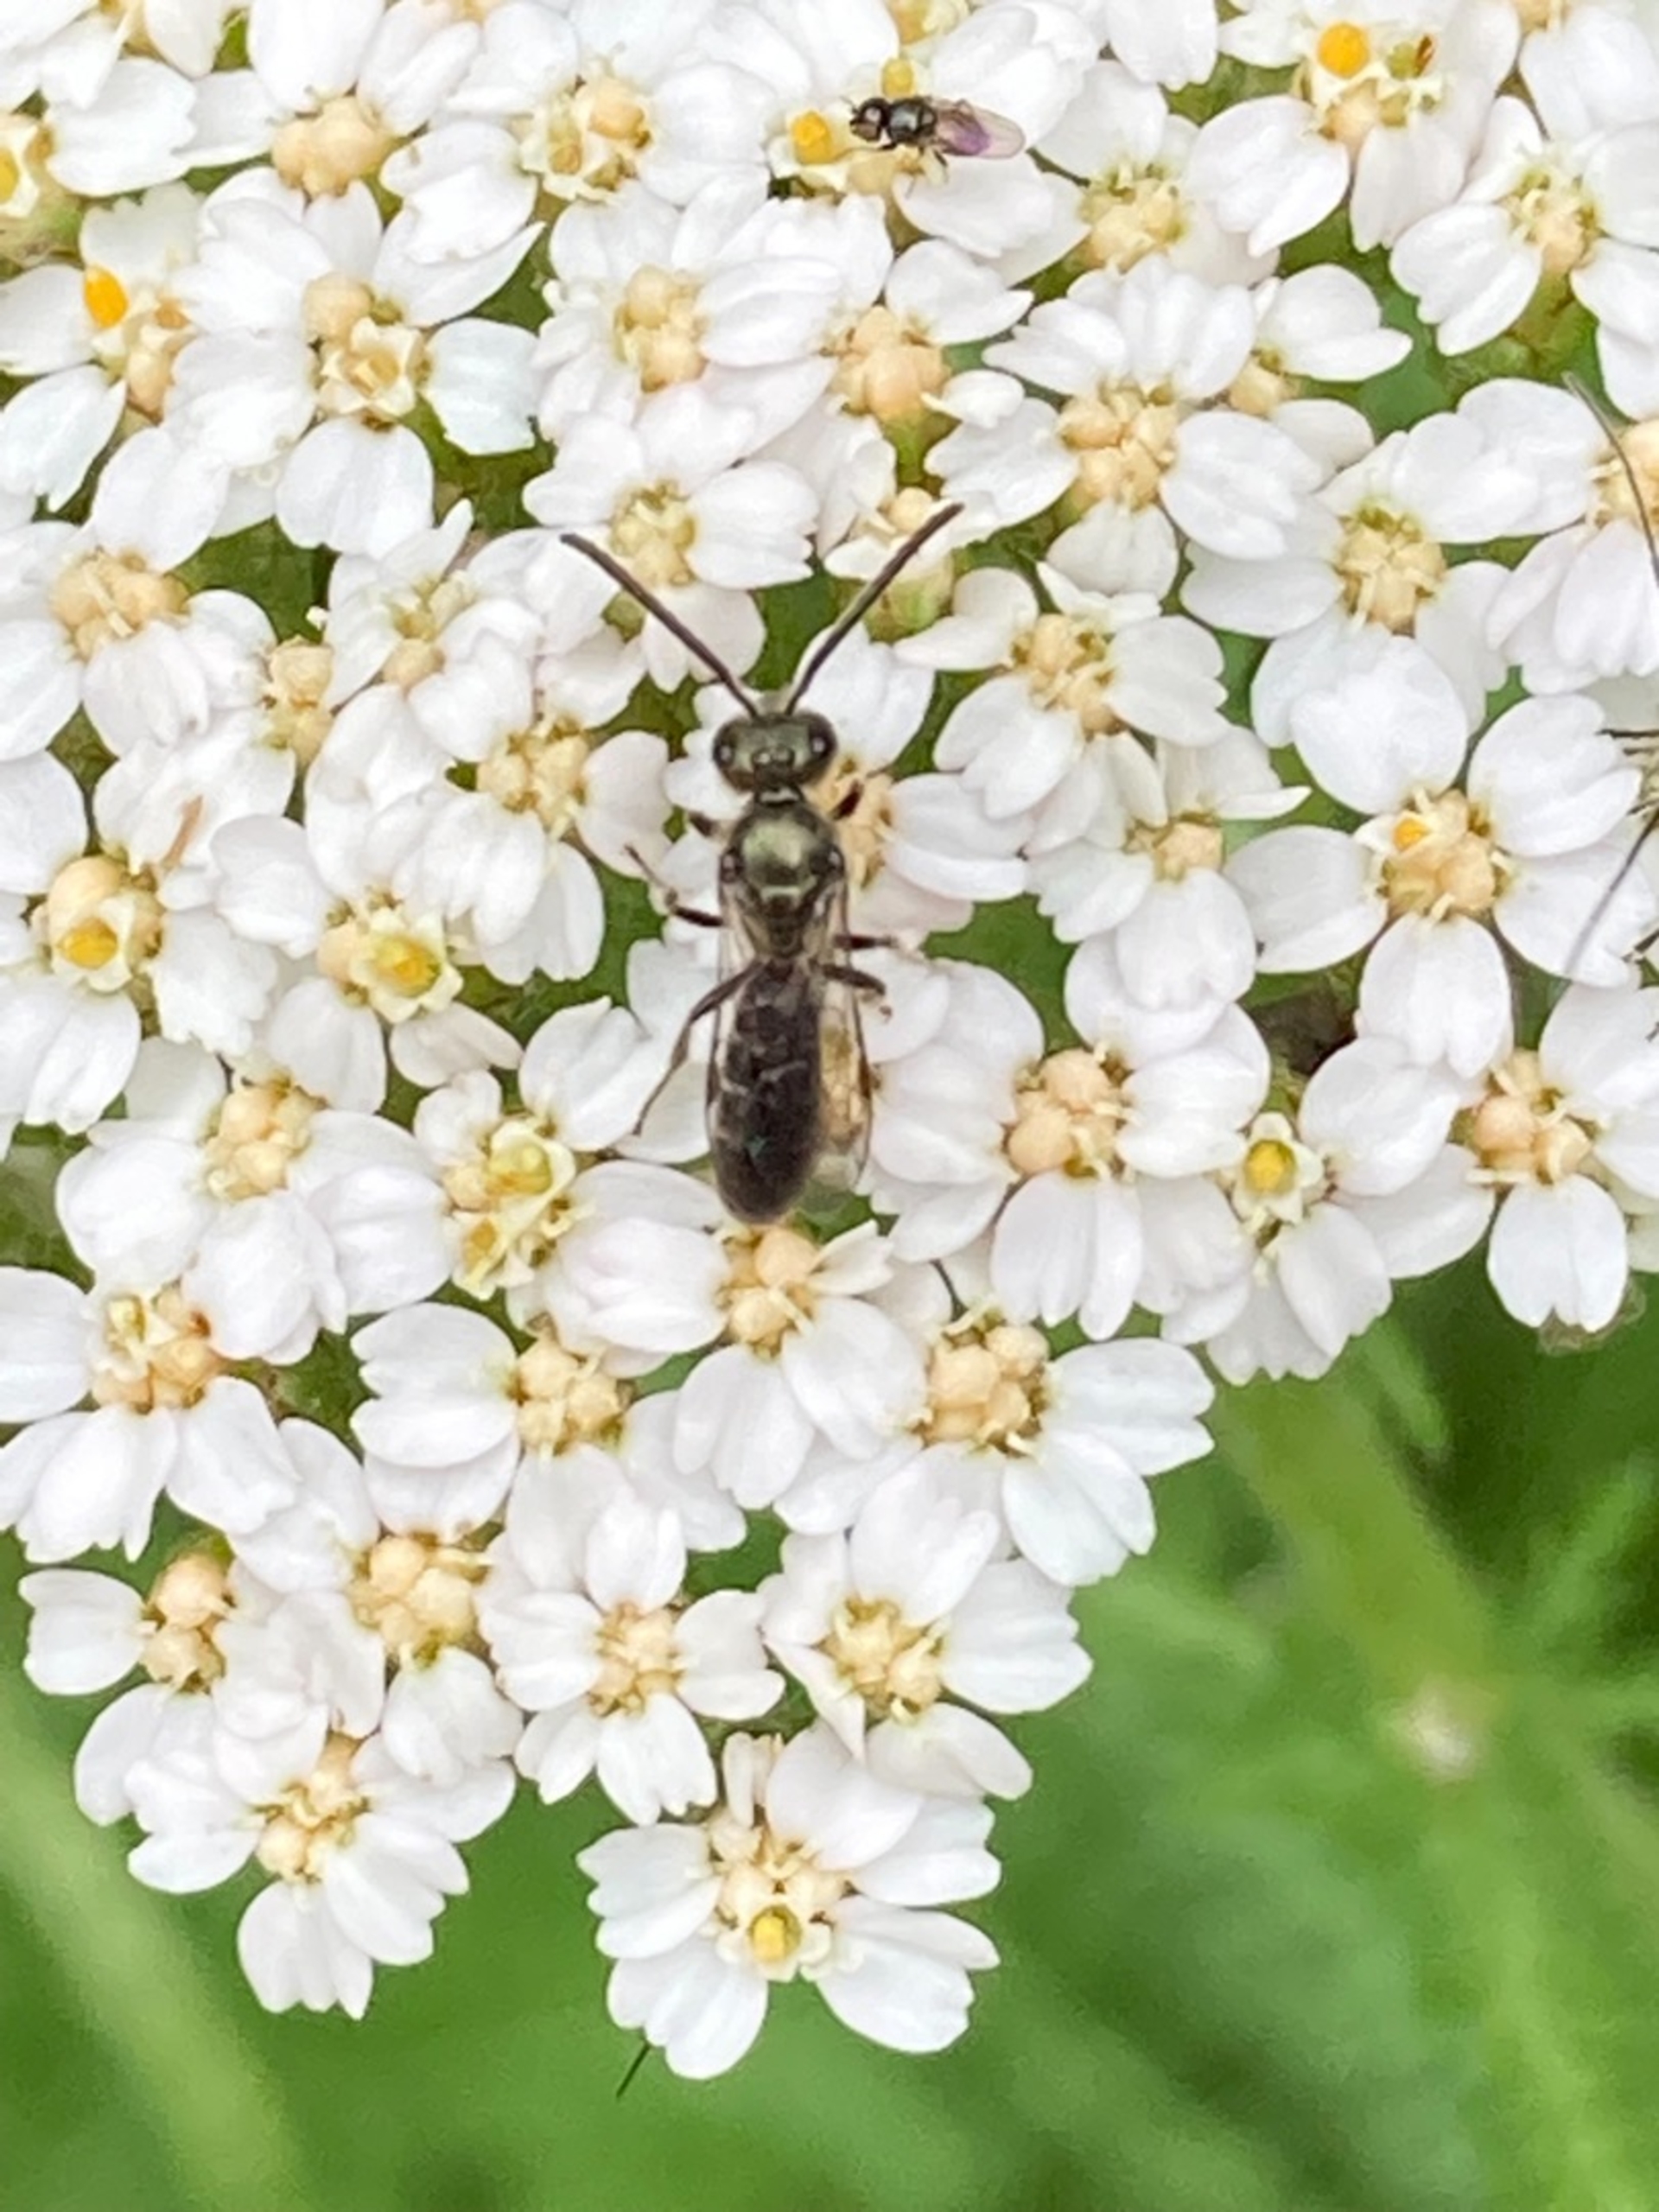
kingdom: Animalia
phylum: Arthropoda
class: Insecta
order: Hymenoptera
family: Halictidae
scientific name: Halictidae
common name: Vejbier
